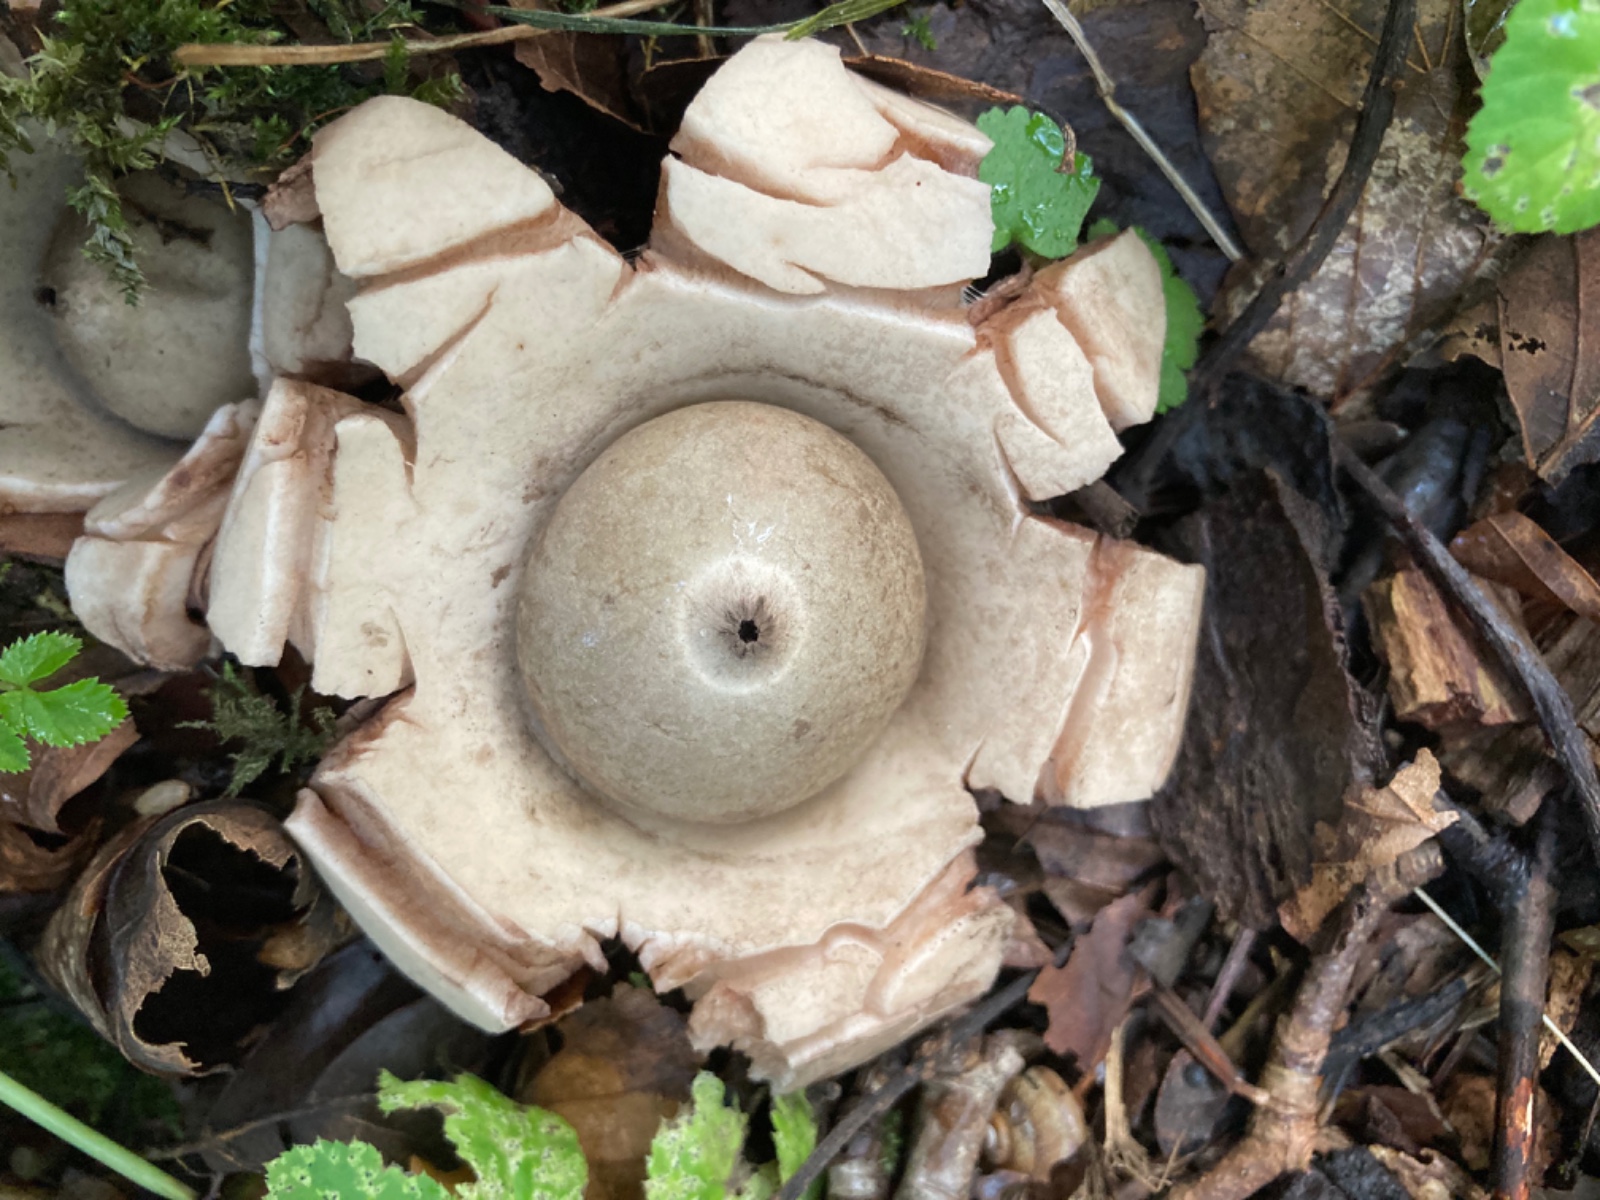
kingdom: Fungi
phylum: Basidiomycota
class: Agaricomycetes
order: Geastrales
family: Geastraceae
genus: Geastrum
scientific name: Geastrum michelianum
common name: kødet stjernebold
